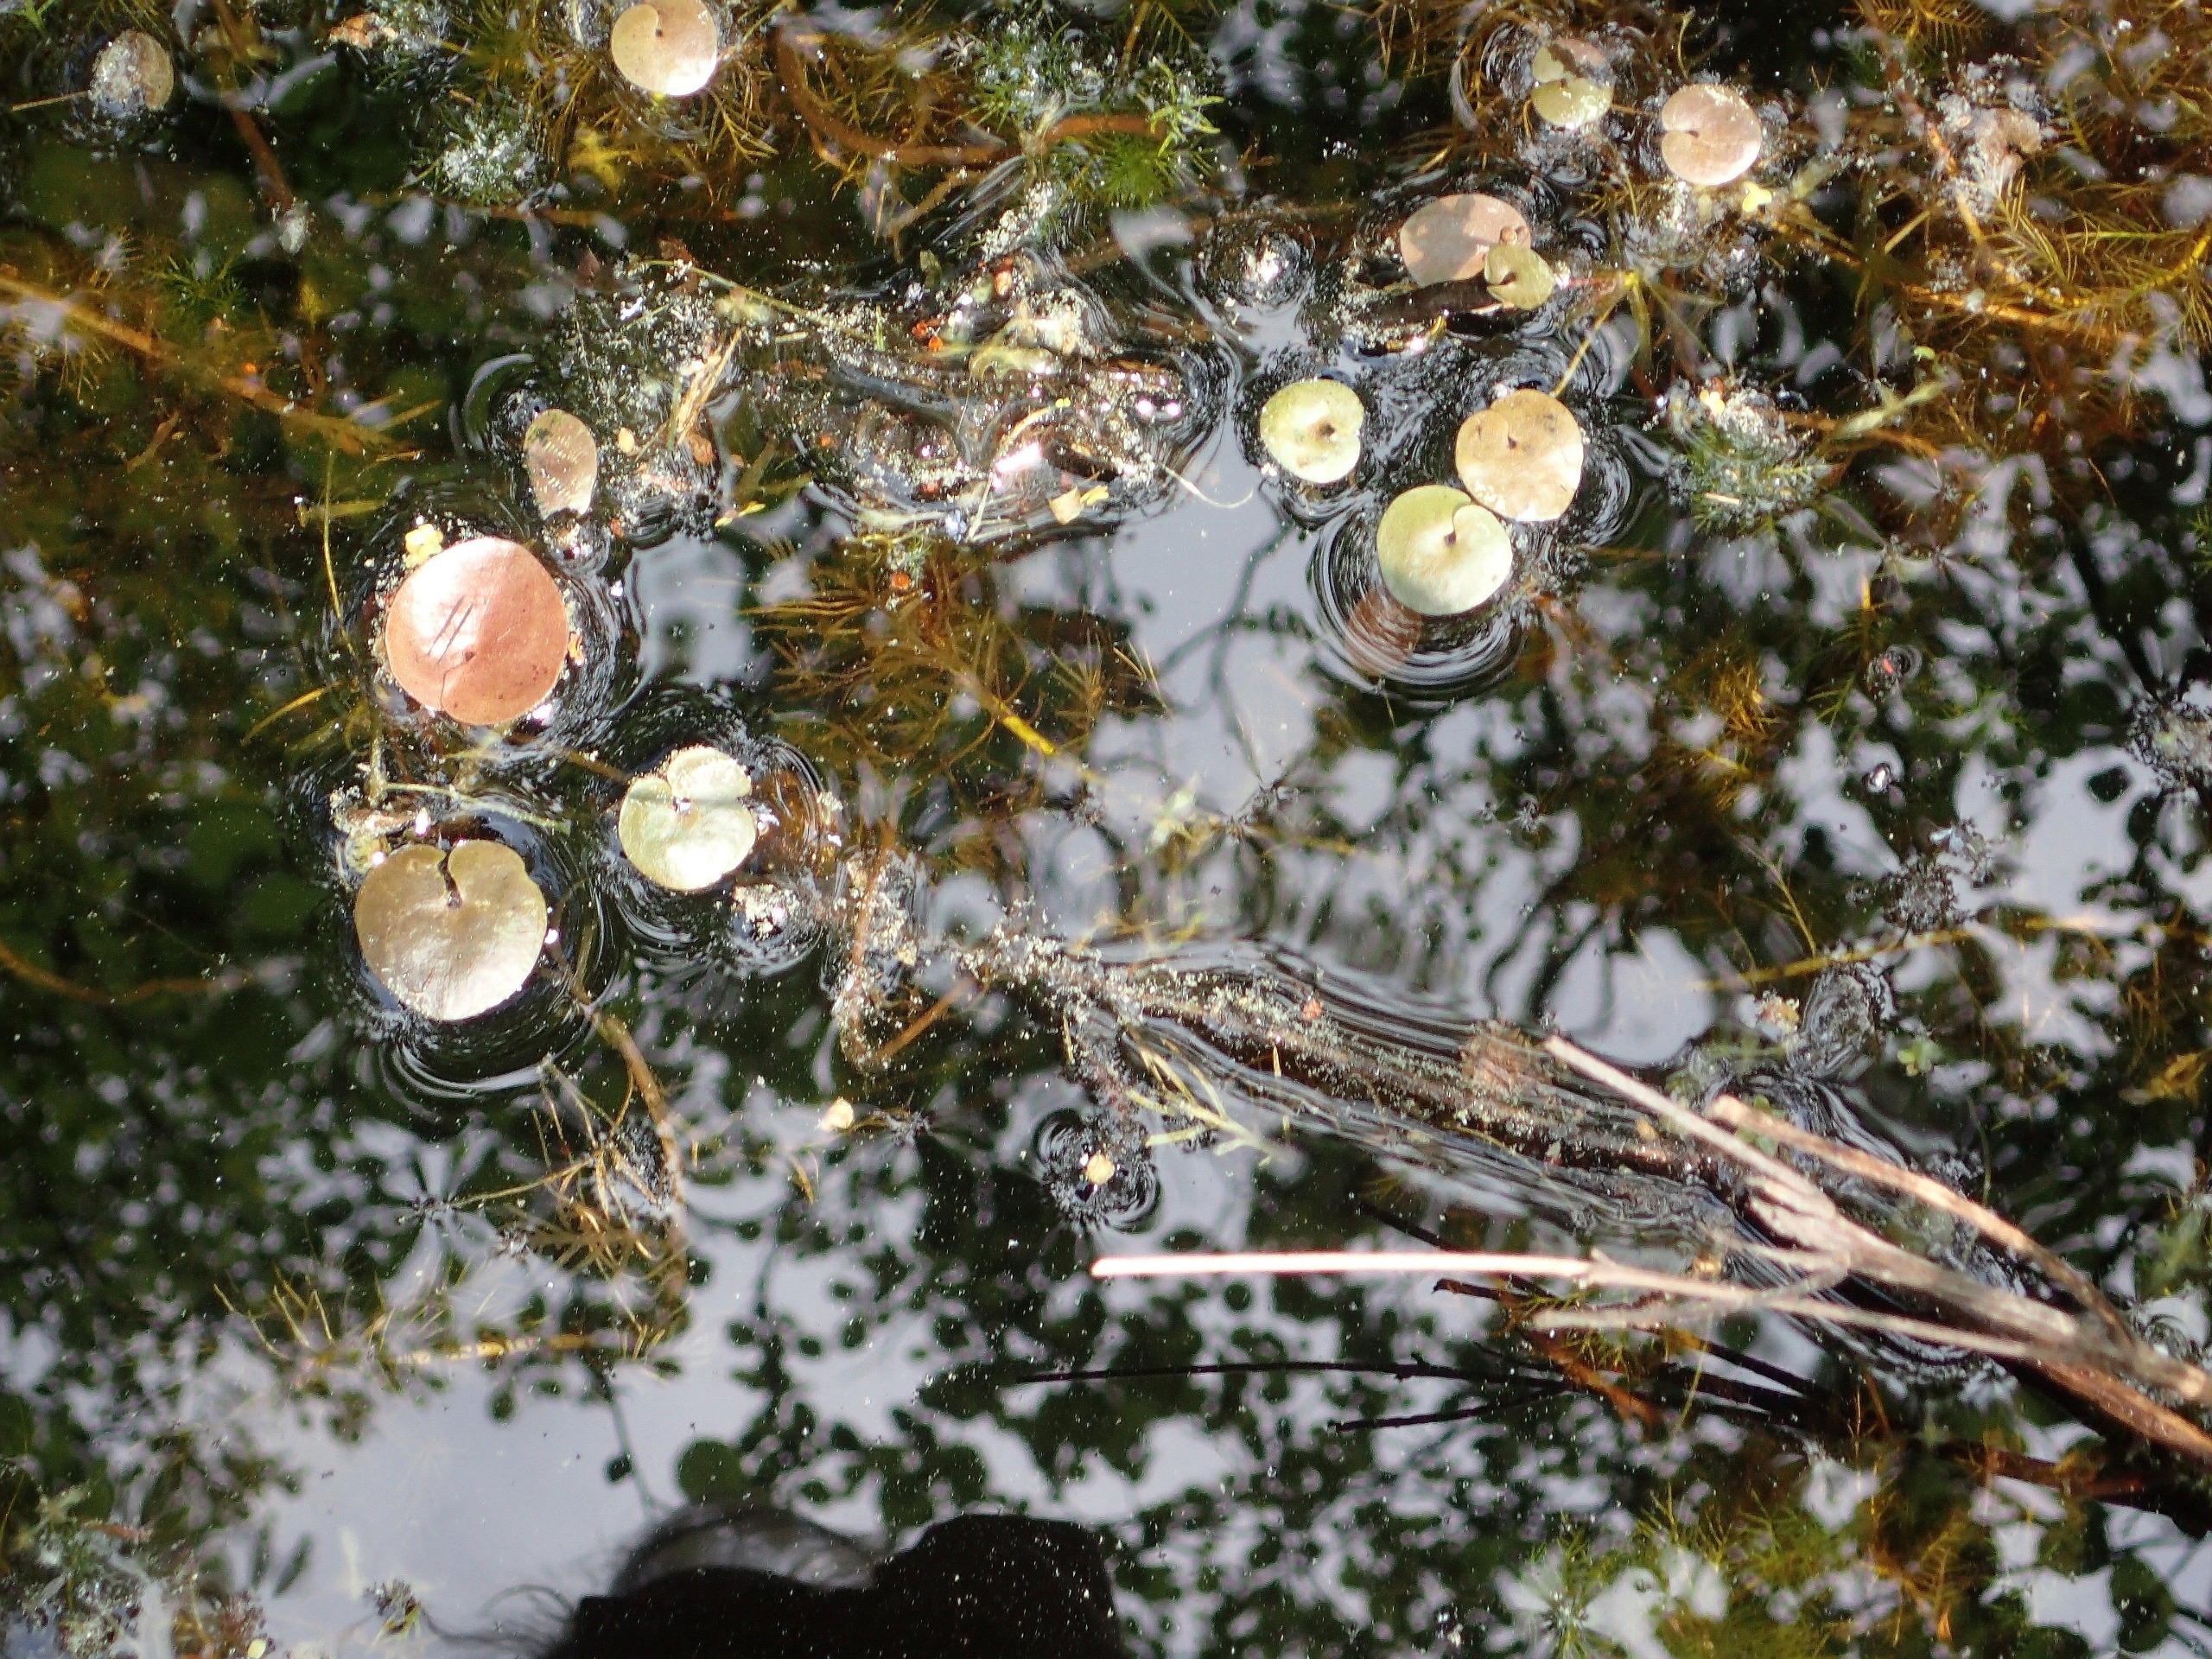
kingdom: Plantae
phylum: Tracheophyta
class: Liliopsida
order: Alismatales
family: Hydrocharitaceae
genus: Hydrocharis
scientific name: Hydrocharis morsus-ranae
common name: Frøbid
